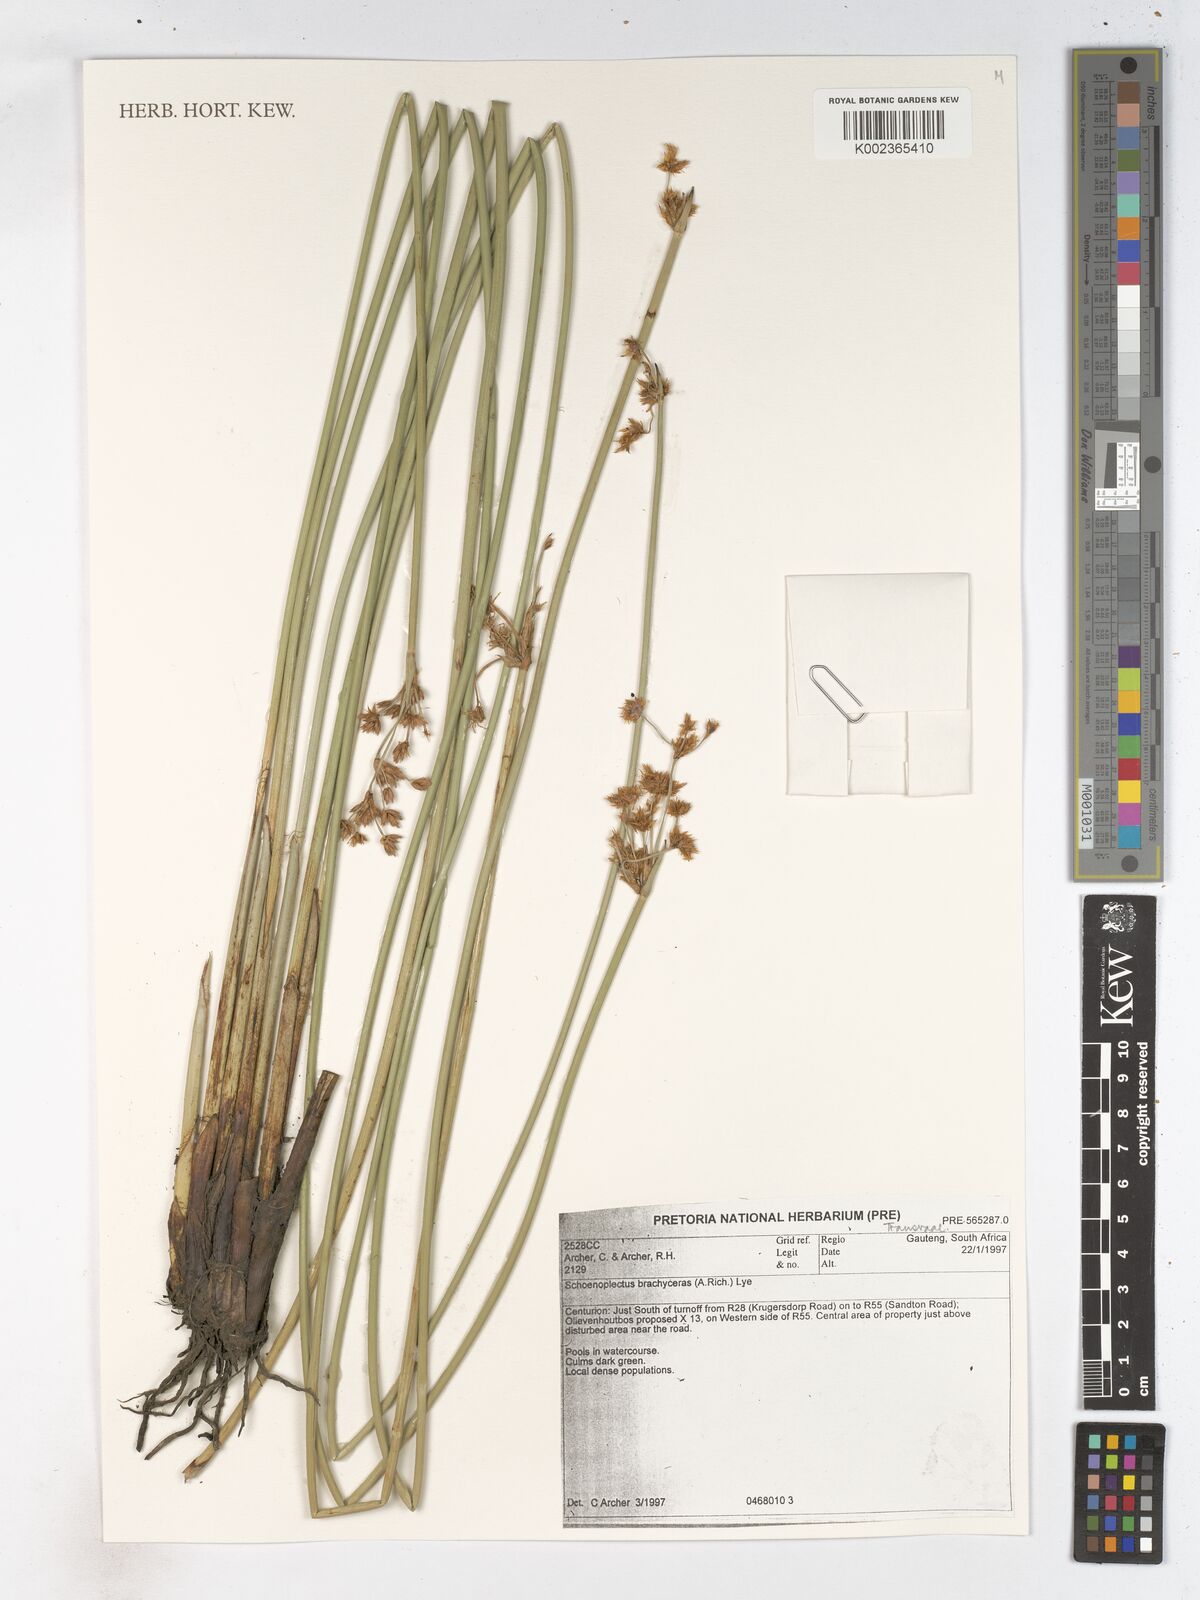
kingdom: Plantae
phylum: Tracheophyta
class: Liliopsida
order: Poales
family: Cyperaceae
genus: Schoenoplectiella
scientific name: Schoenoplectiella brachyceras
